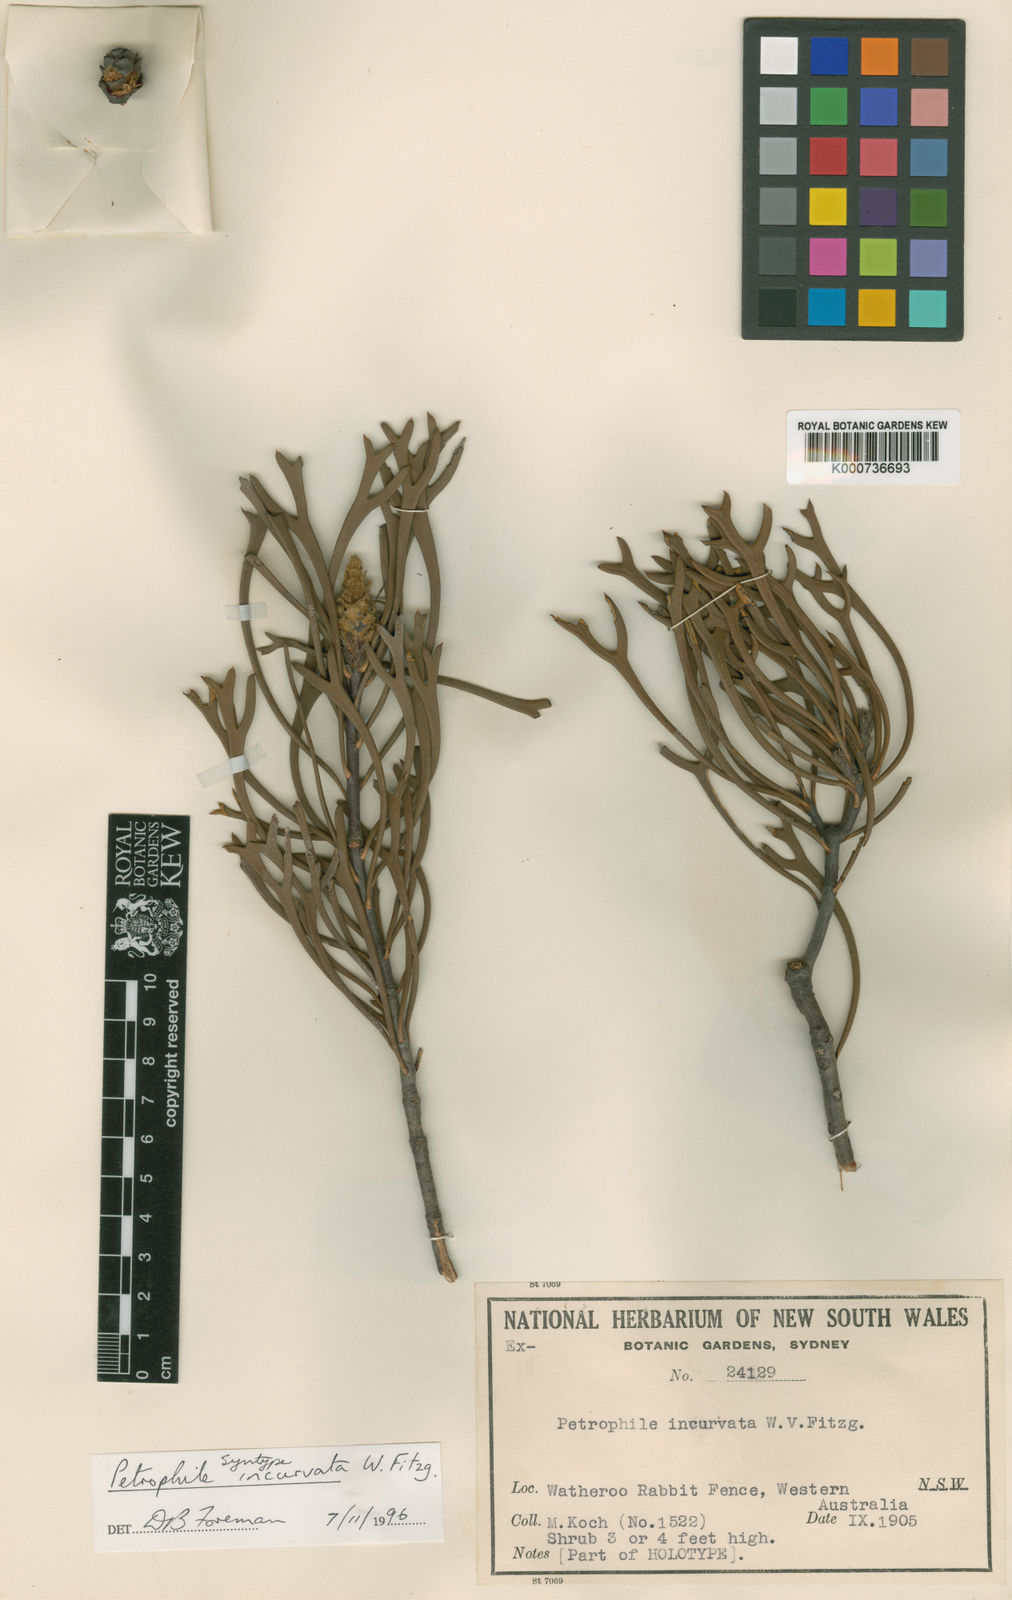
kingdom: Plantae
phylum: Tracheophyta
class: Magnoliopsida
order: Proteales
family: Proteaceae
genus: Petrophile
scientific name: Petrophile incurvata
